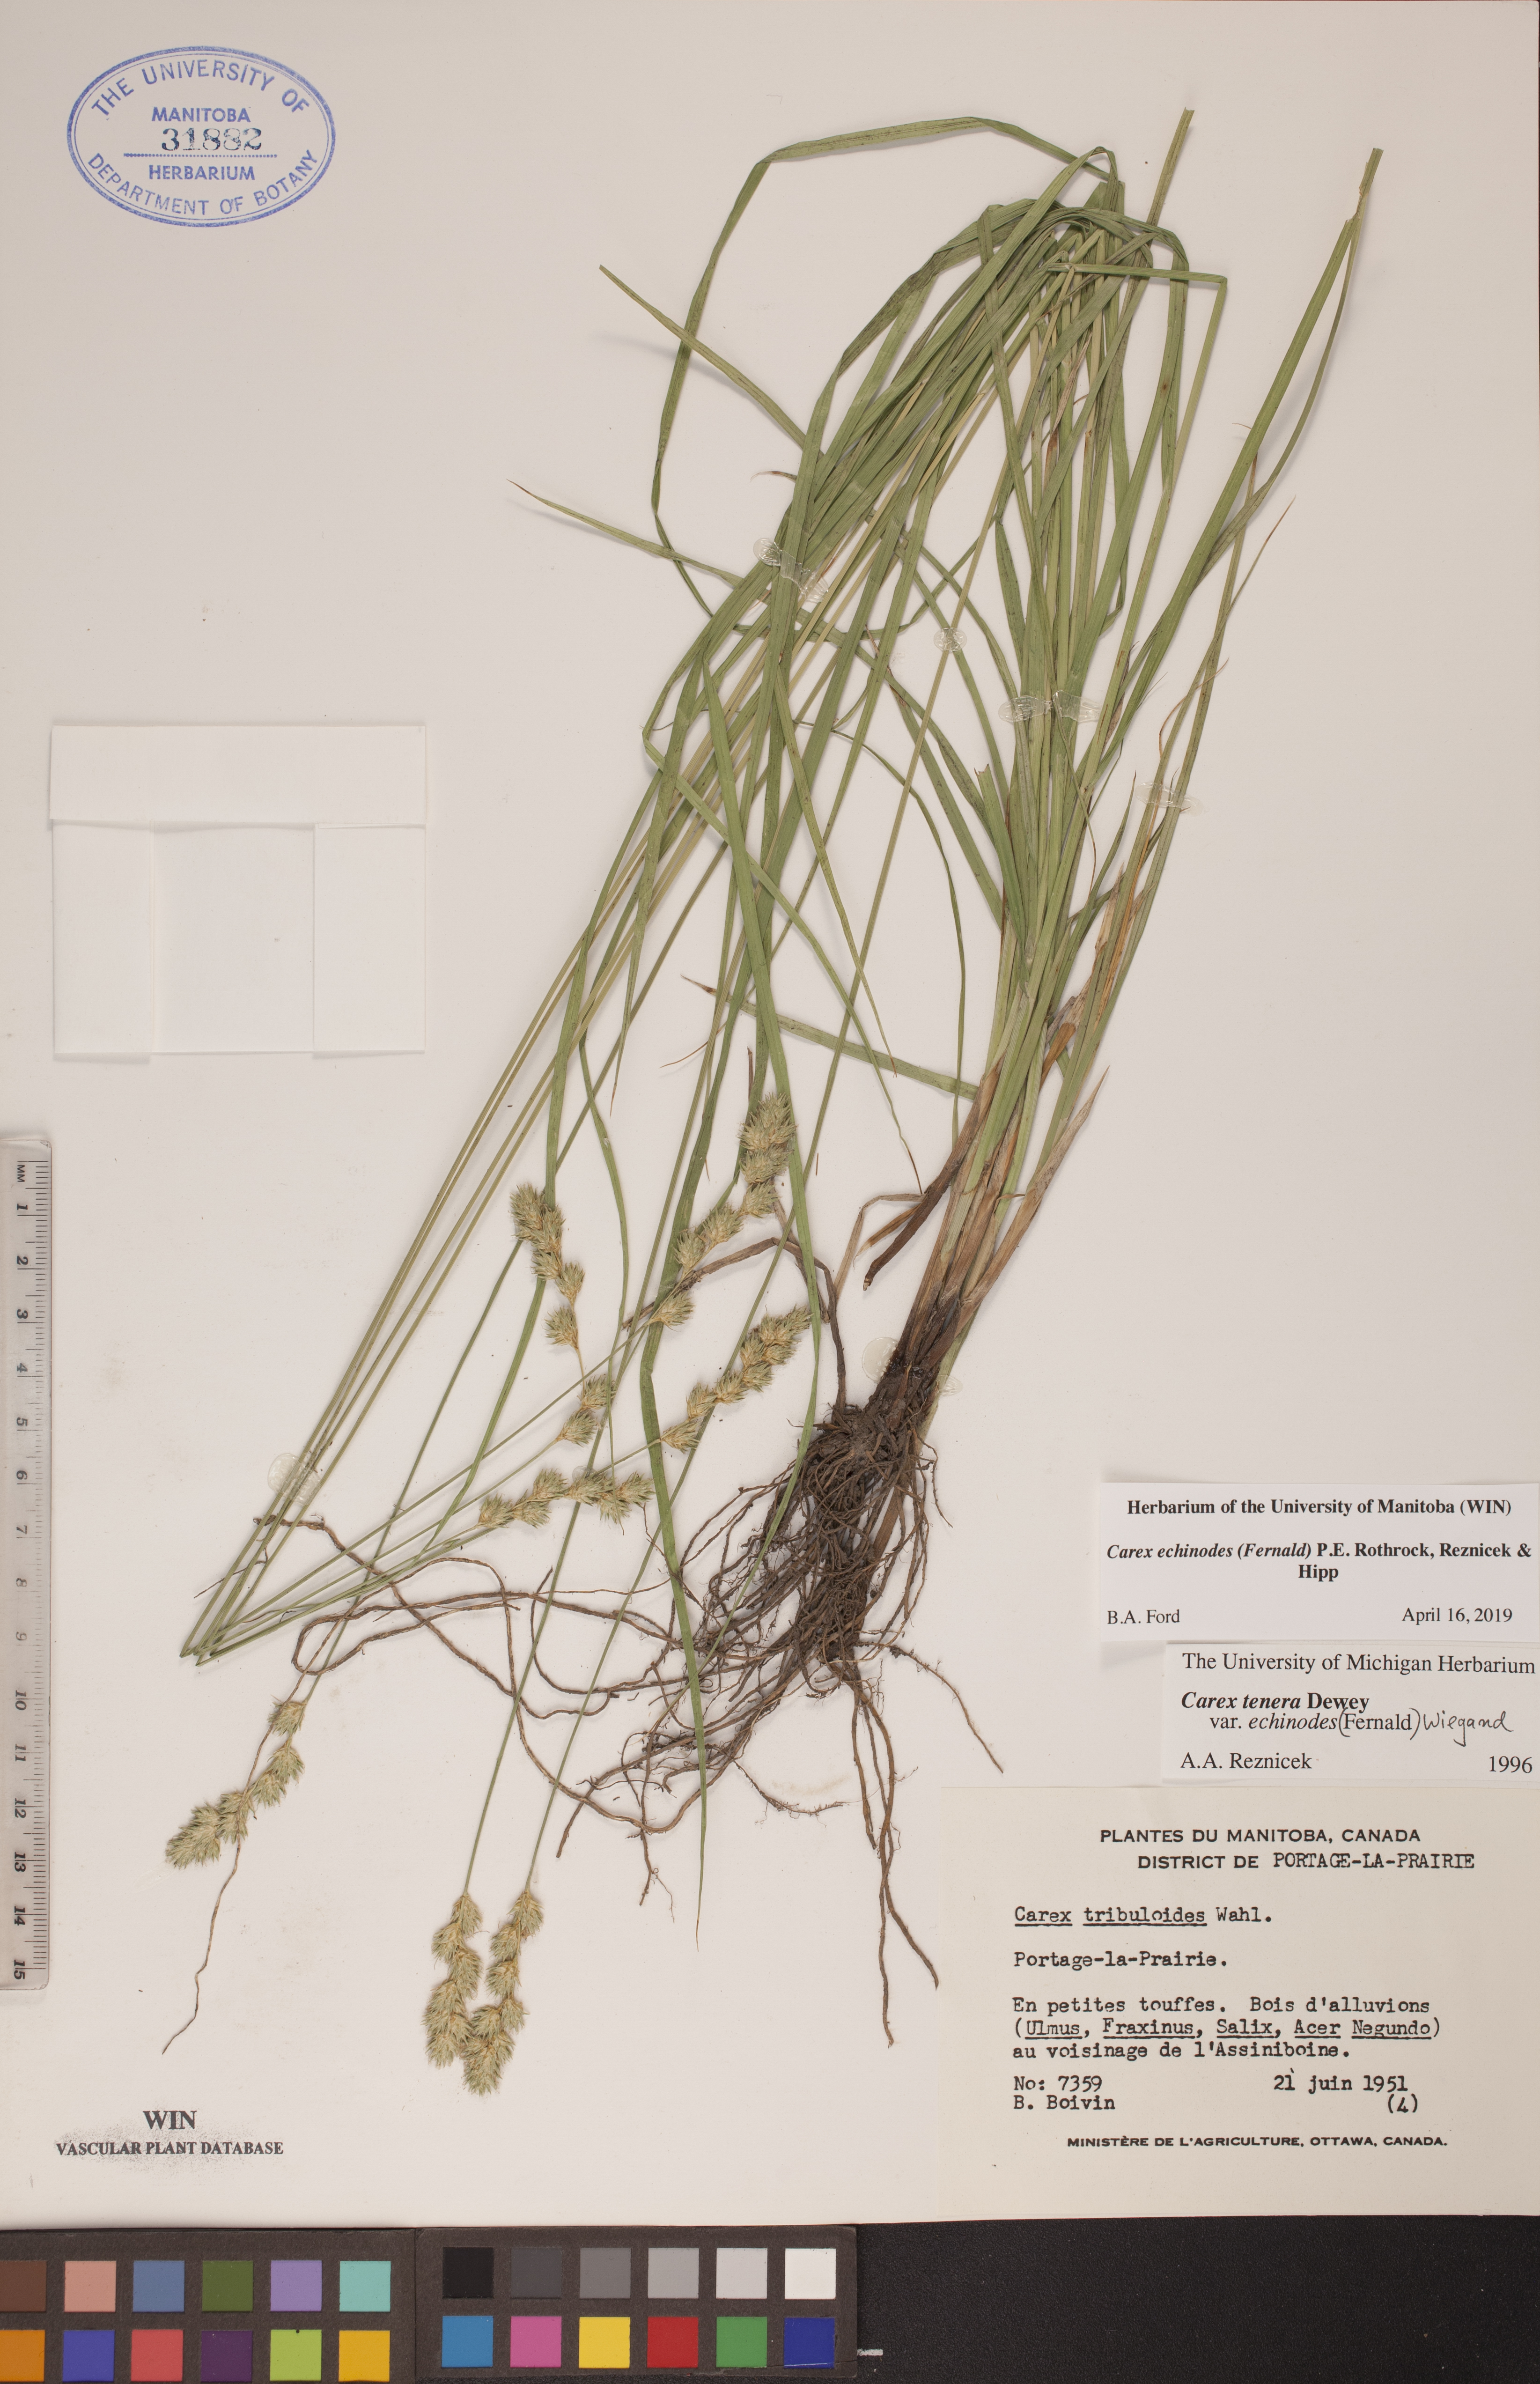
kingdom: Plantae
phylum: Tracheophyta
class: Liliopsida
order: Poales
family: Cyperaceae
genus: Carex
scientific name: Carex echinodes
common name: Marsh straw sedge
